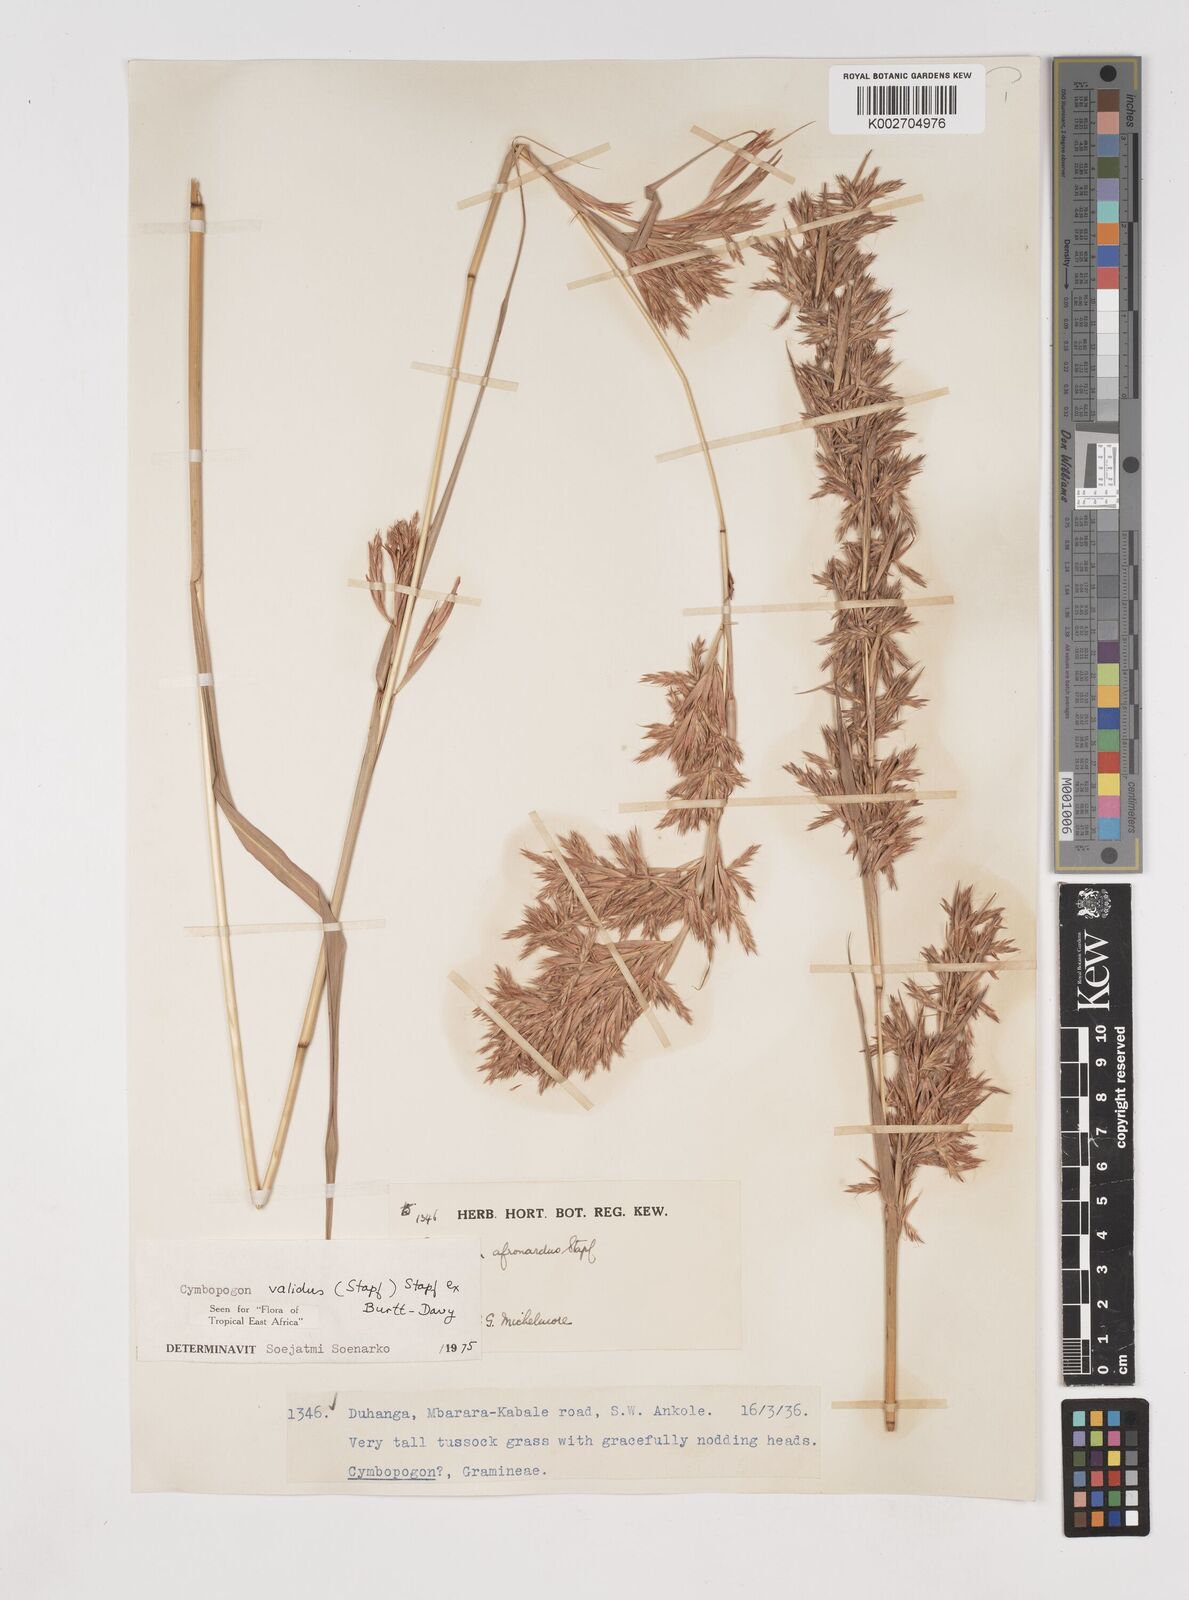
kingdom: Plantae
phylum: Tracheophyta
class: Liliopsida
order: Poales
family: Poaceae
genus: Cymbopogon
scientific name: Cymbopogon nardus
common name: Giant turpentine grass
